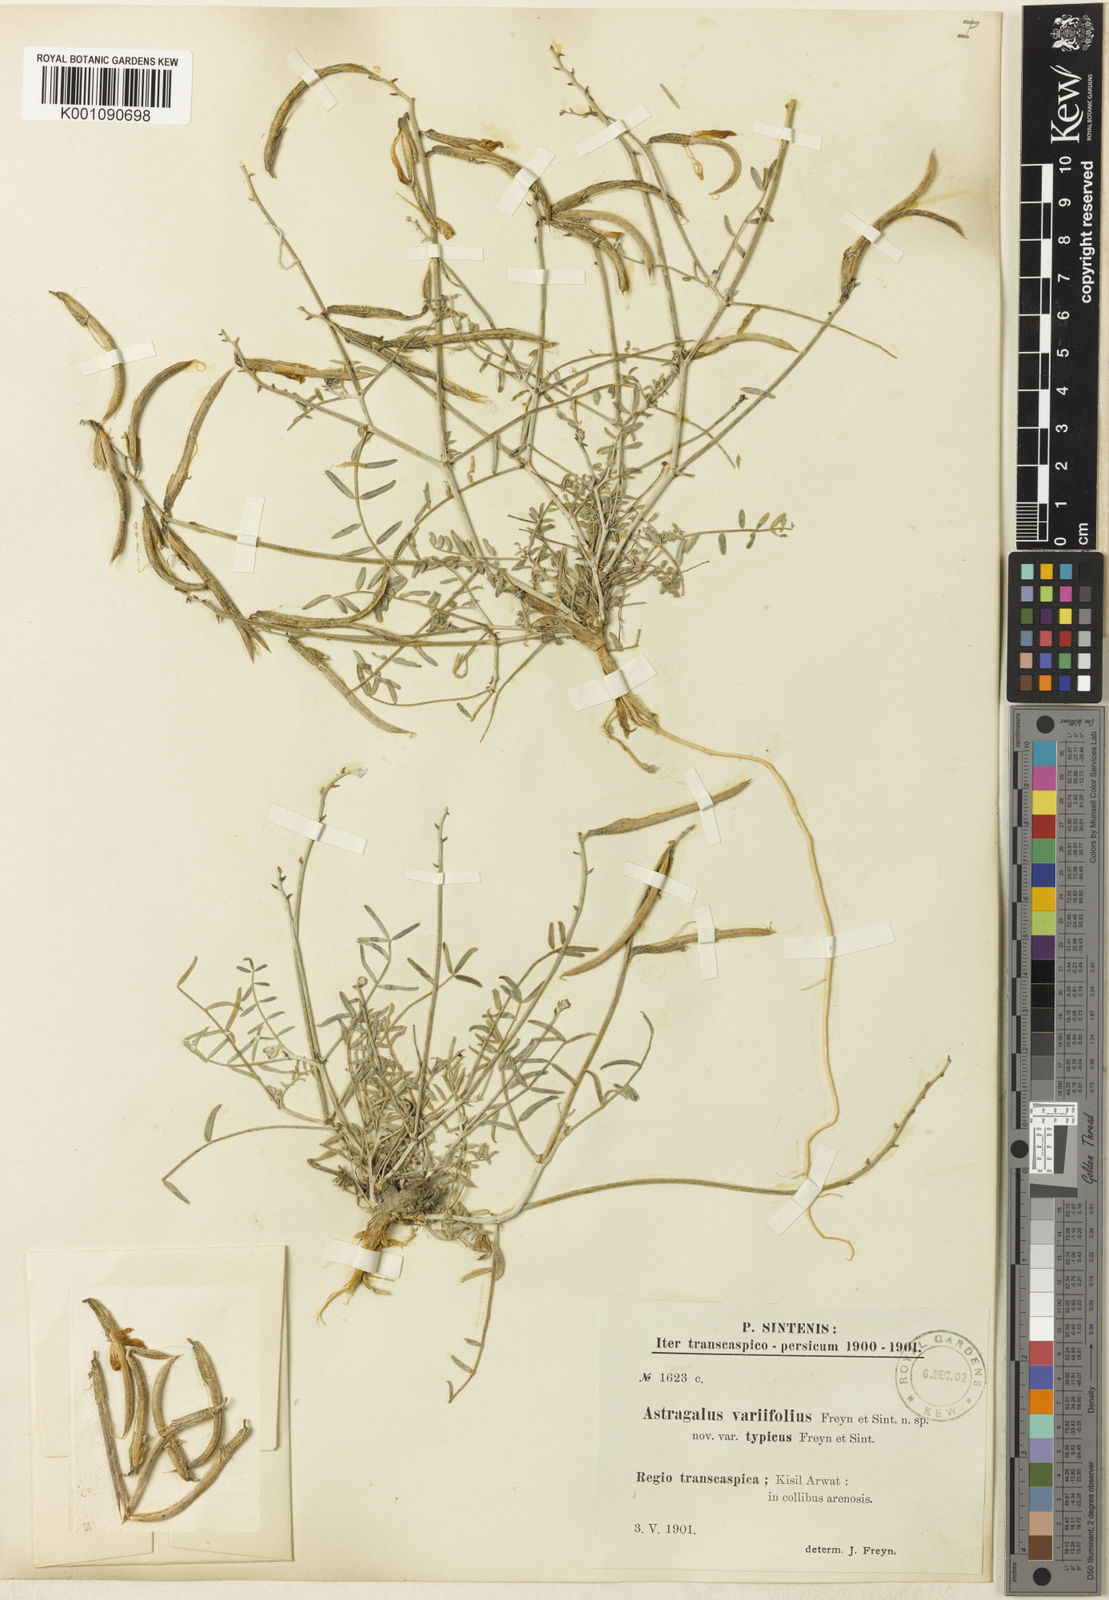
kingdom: Plantae
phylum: Tracheophyta
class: Magnoliopsida
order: Fabales
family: Fabaceae
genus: Astragalus
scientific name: Astragalus
